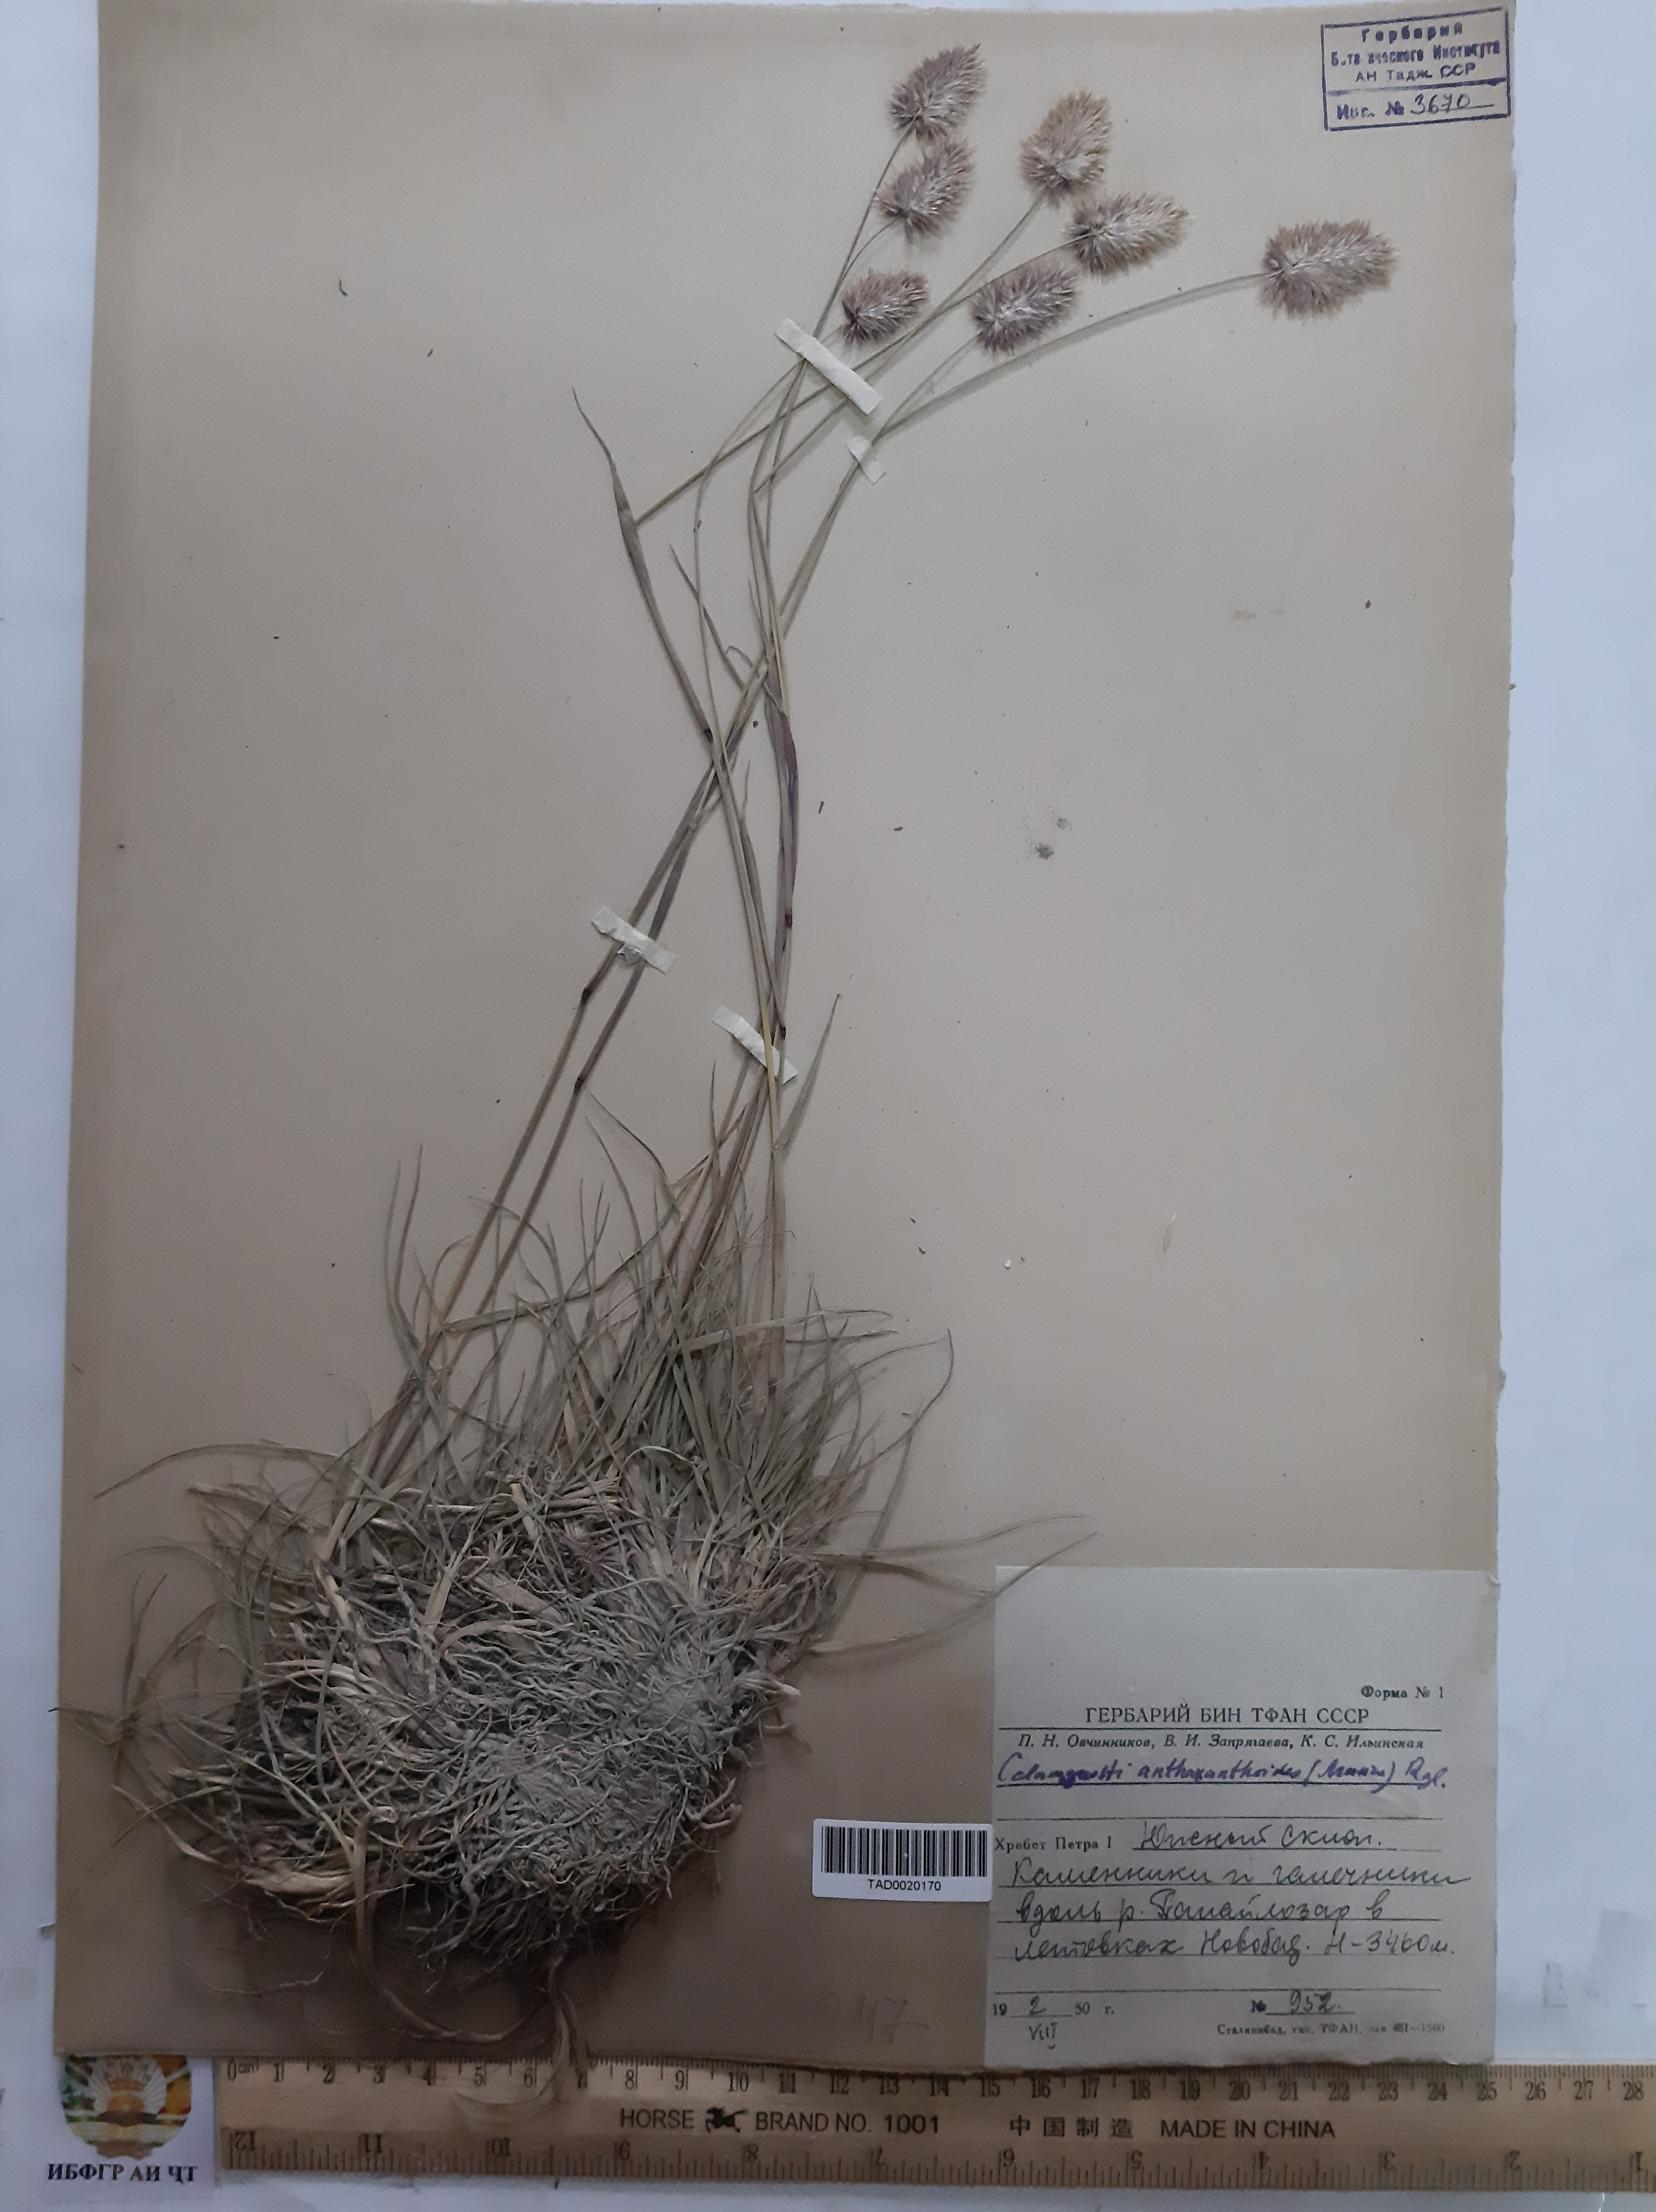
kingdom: Plantae
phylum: Tracheophyta
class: Liliopsida
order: Poales
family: Poaceae
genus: Calamagrostis
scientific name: Calamagrostis anthoxanthoides
